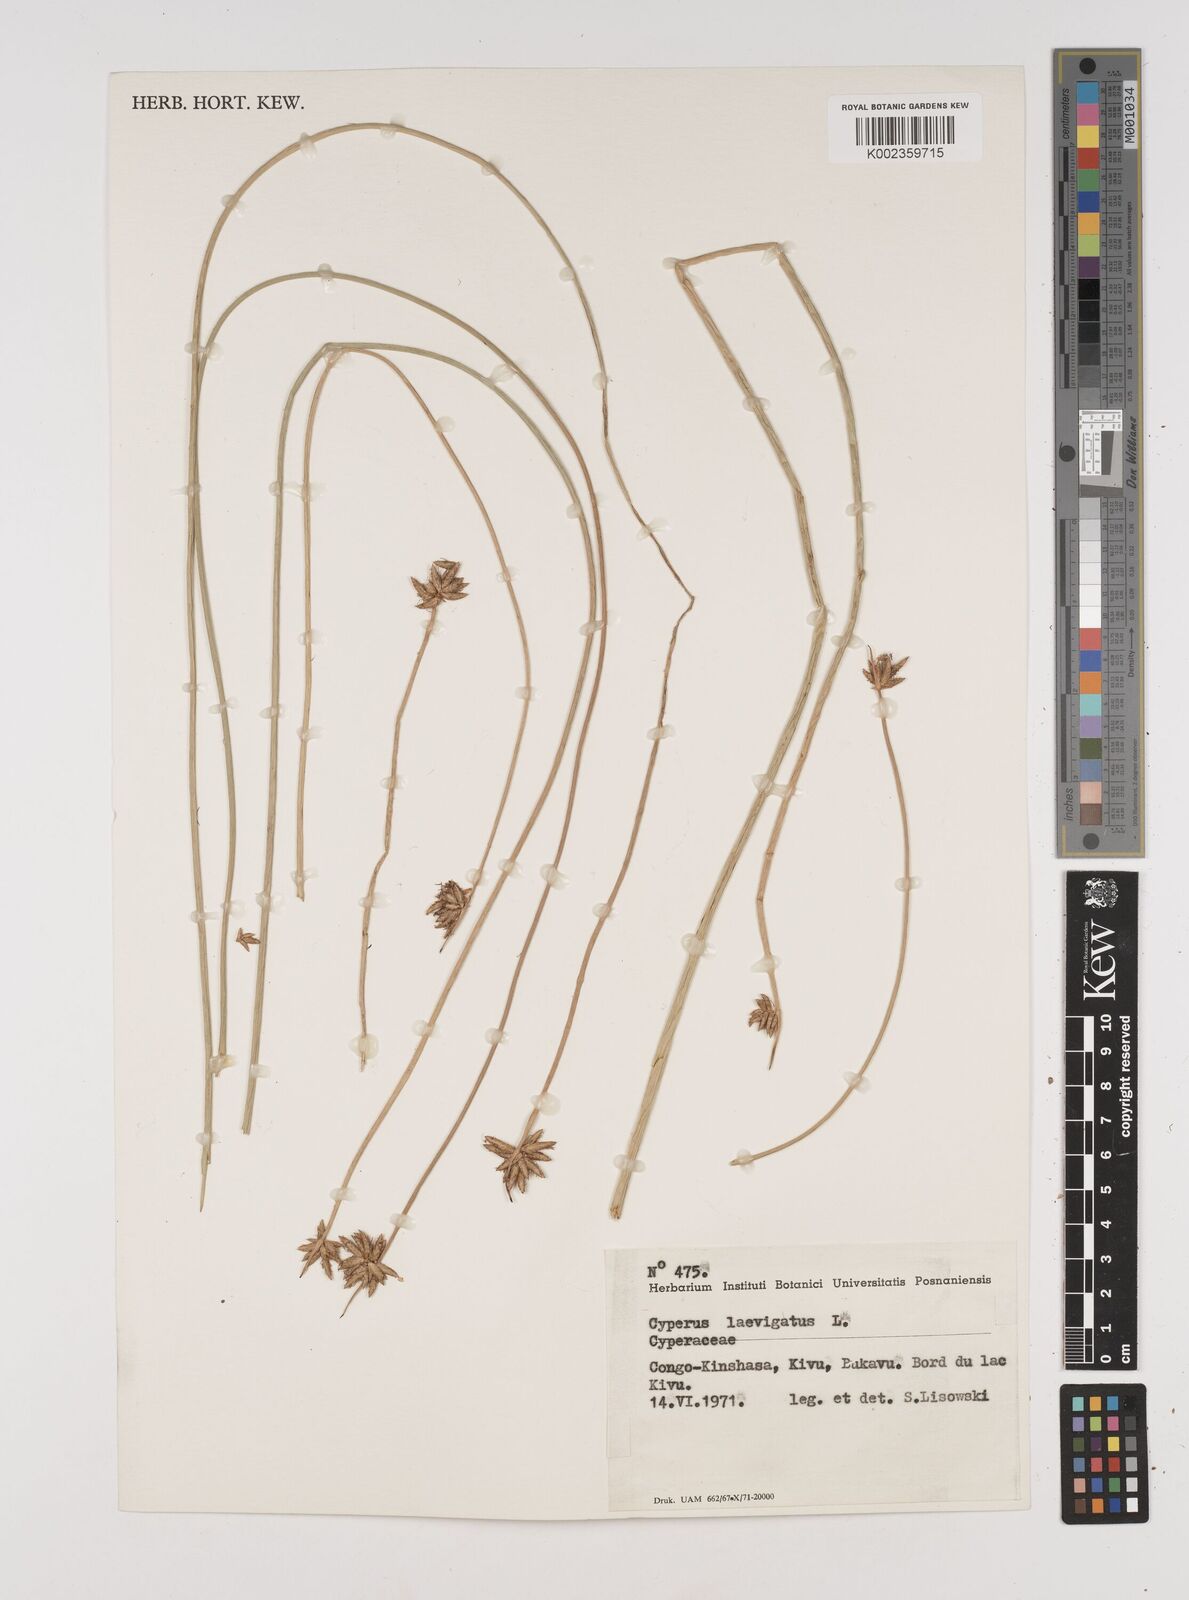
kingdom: Plantae
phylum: Tracheophyta
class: Liliopsida
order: Poales
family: Cyperaceae
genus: Cyperus
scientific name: Cyperus laevigatus
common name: Smooth flat sedge
